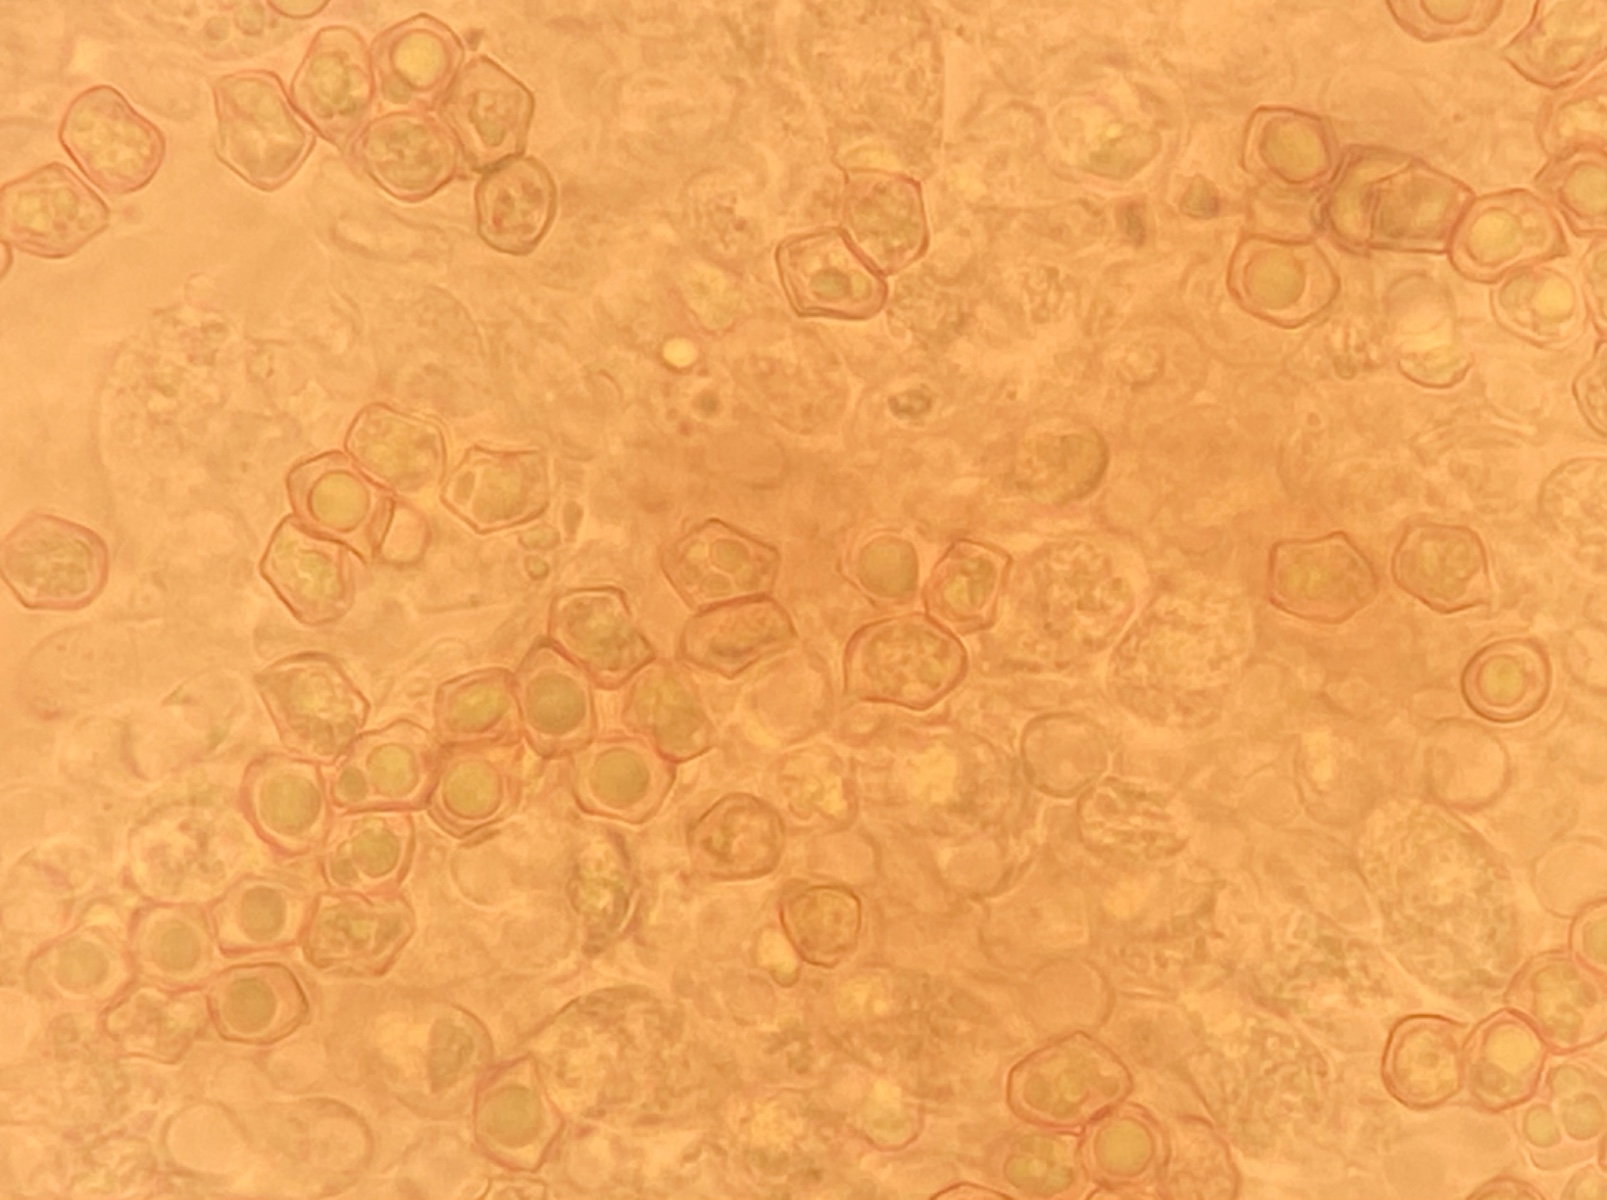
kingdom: Fungi
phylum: Basidiomycota
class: Agaricomycetes
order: Agaricales
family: Entolomataceae
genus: Entoloma
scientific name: Entoloma allospermum
